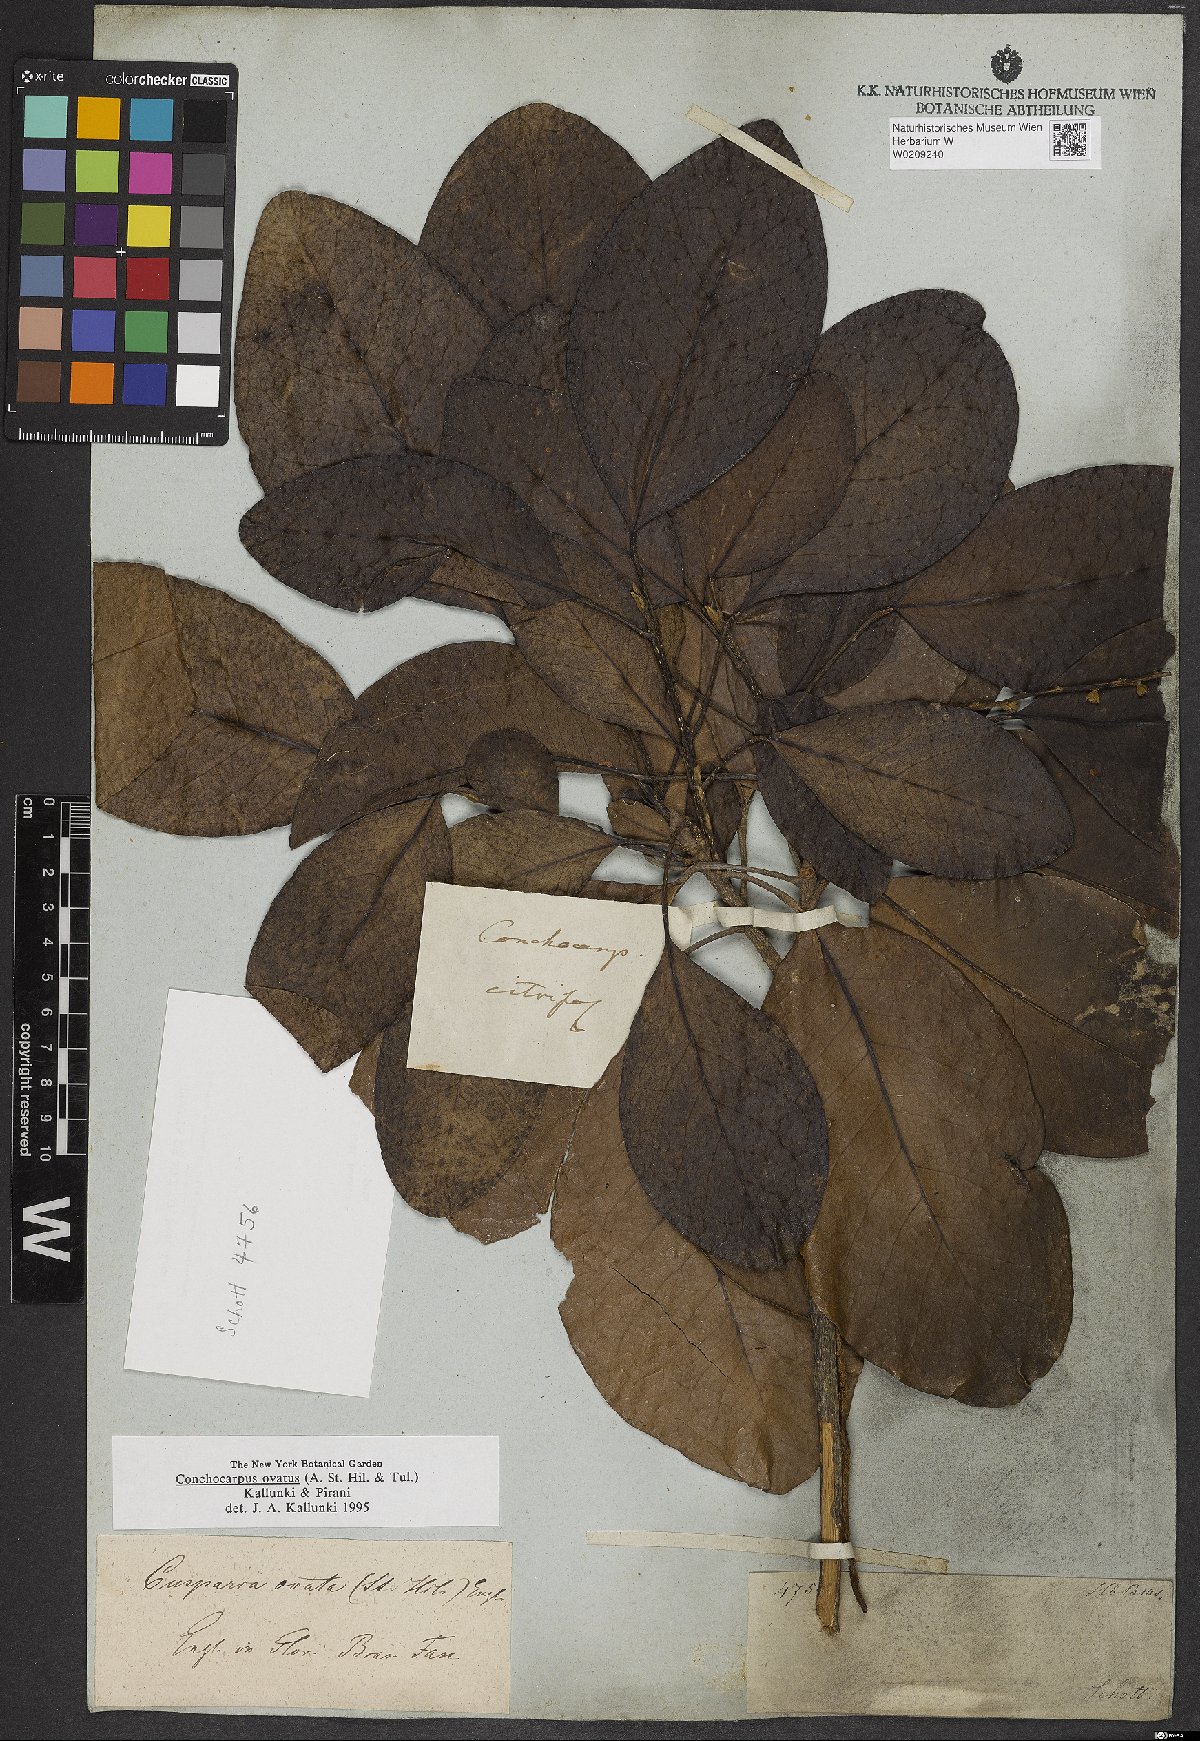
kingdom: Plantae
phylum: Tracheophyta
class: Magnoliopsida
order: Sapindales
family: Rutaceae
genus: Conchocarpus
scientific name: Conchocarpus ovatus
